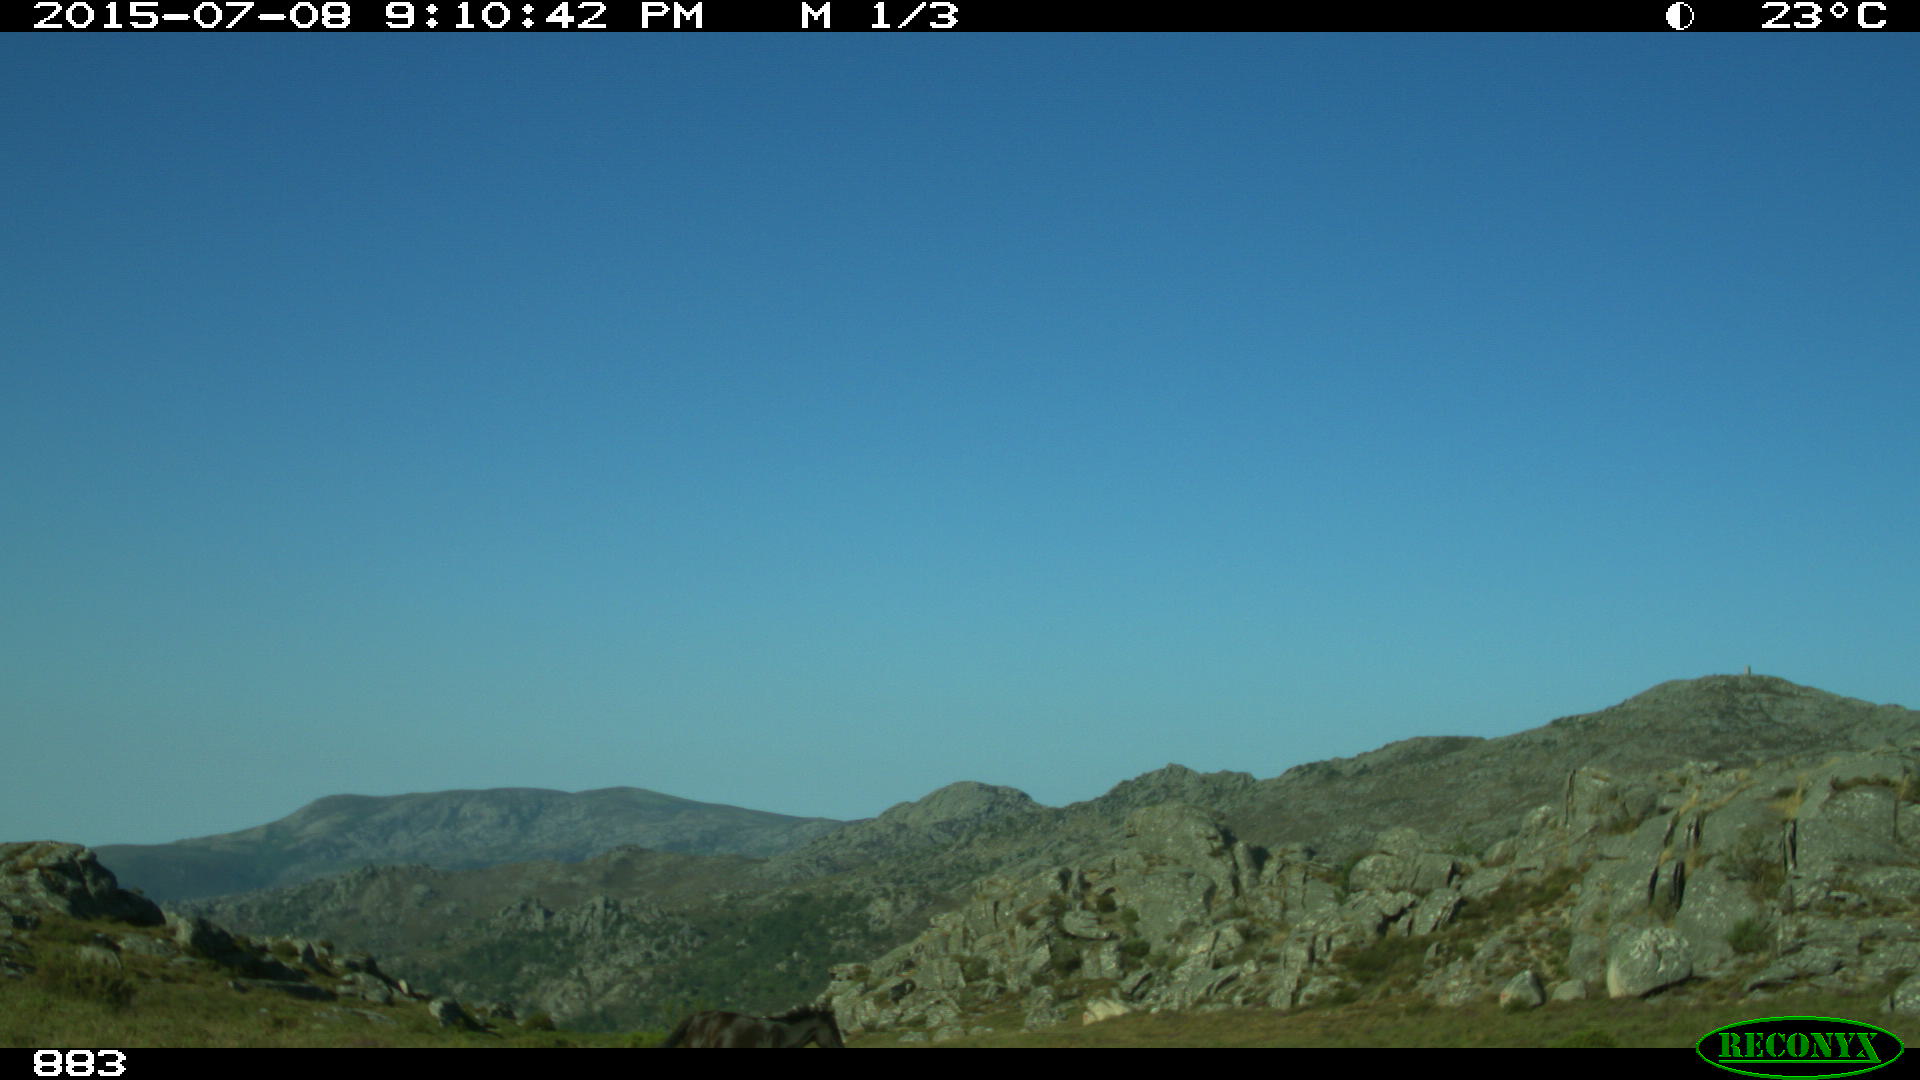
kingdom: Animalia
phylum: Chordata
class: Mammalia
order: Perissodactyla
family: Equidae
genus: Equus
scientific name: Equus caballus
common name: Horse
